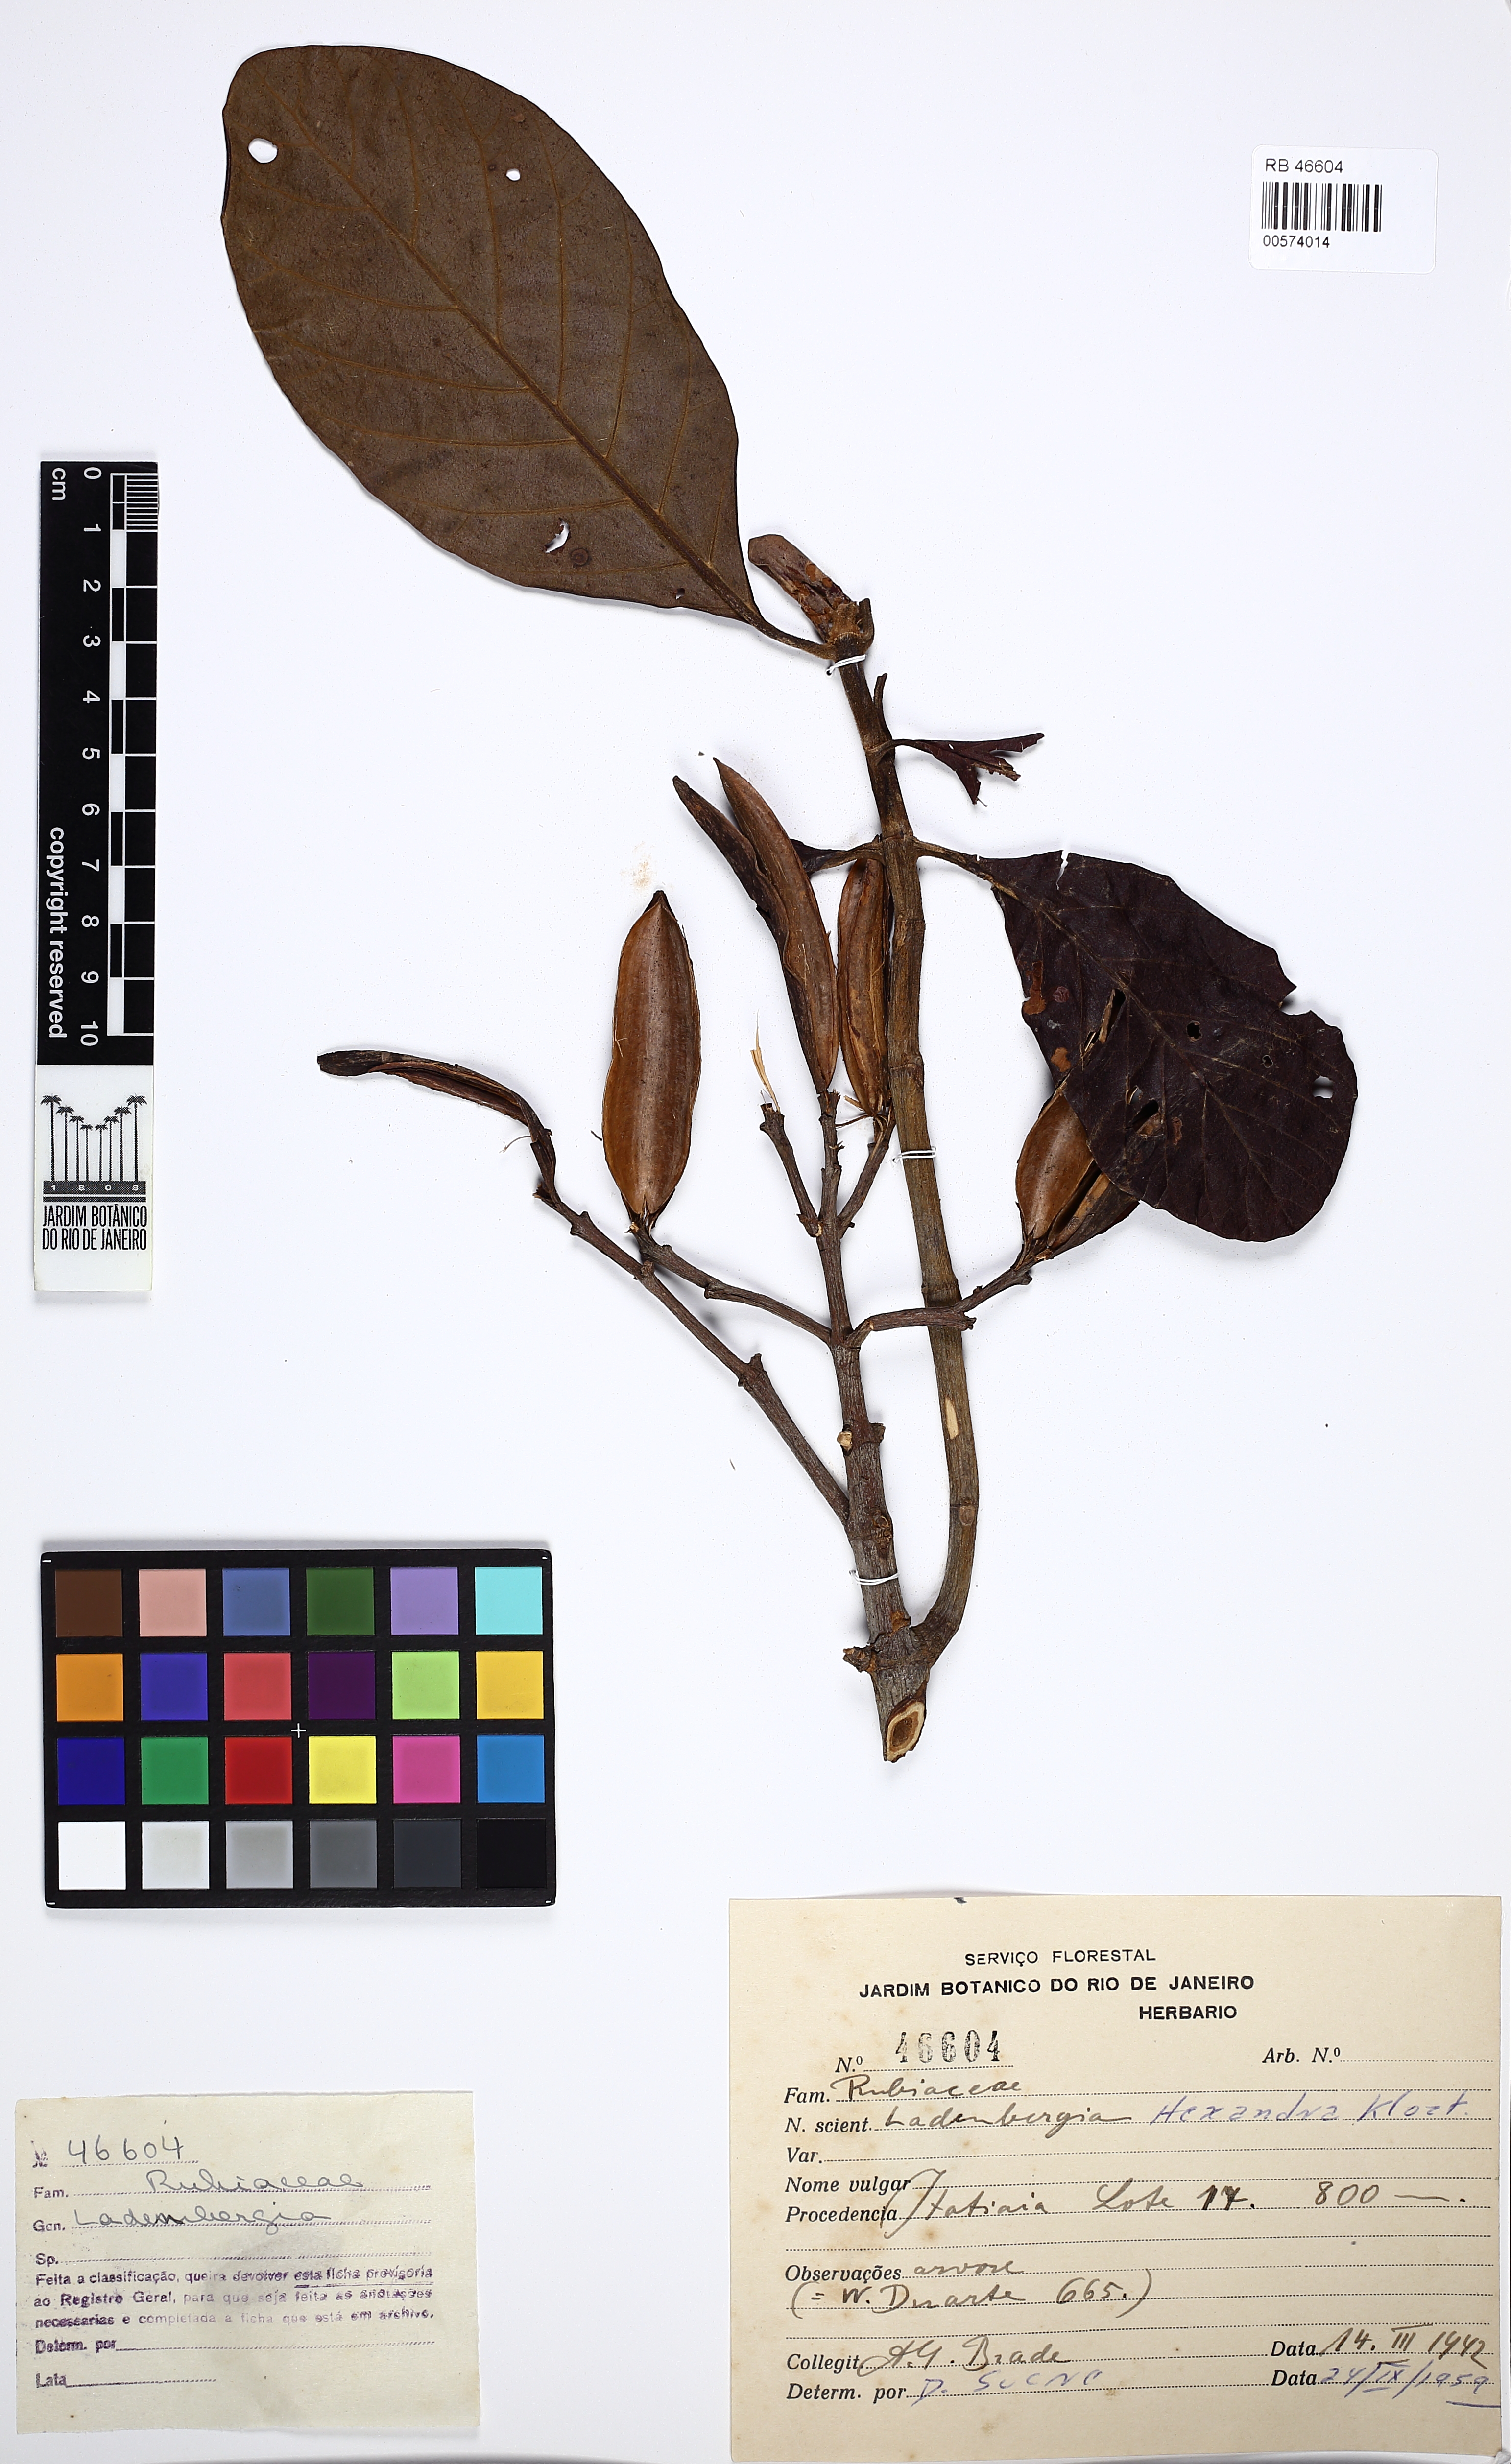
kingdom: Plantae
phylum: Tracheophyta
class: Magnoliopsida
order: Gentianales
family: Rubiaceae
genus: Ladenbergia
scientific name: Ladenbergia hexandra
